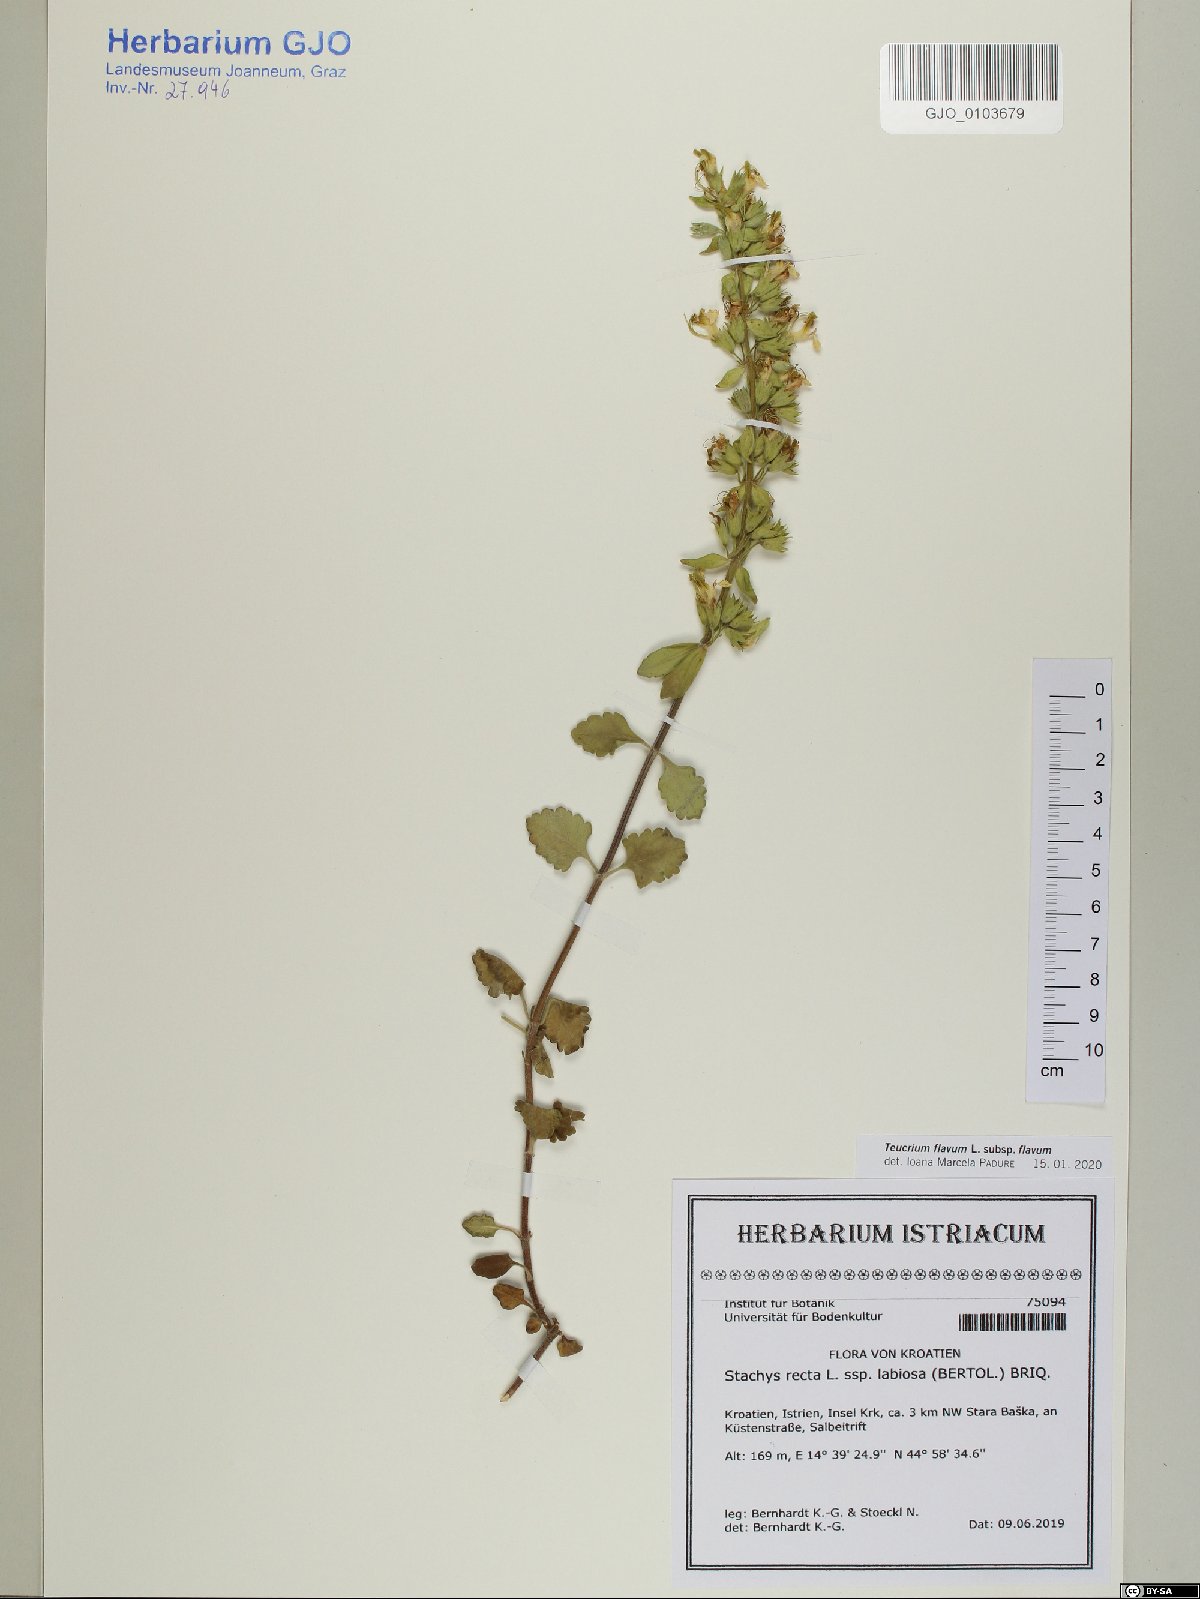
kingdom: Plantae
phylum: Tracheophyta
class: Magnoliopsida
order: Lamiales
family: Lamiaceae
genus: Teucrium
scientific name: Teucrium flavum
